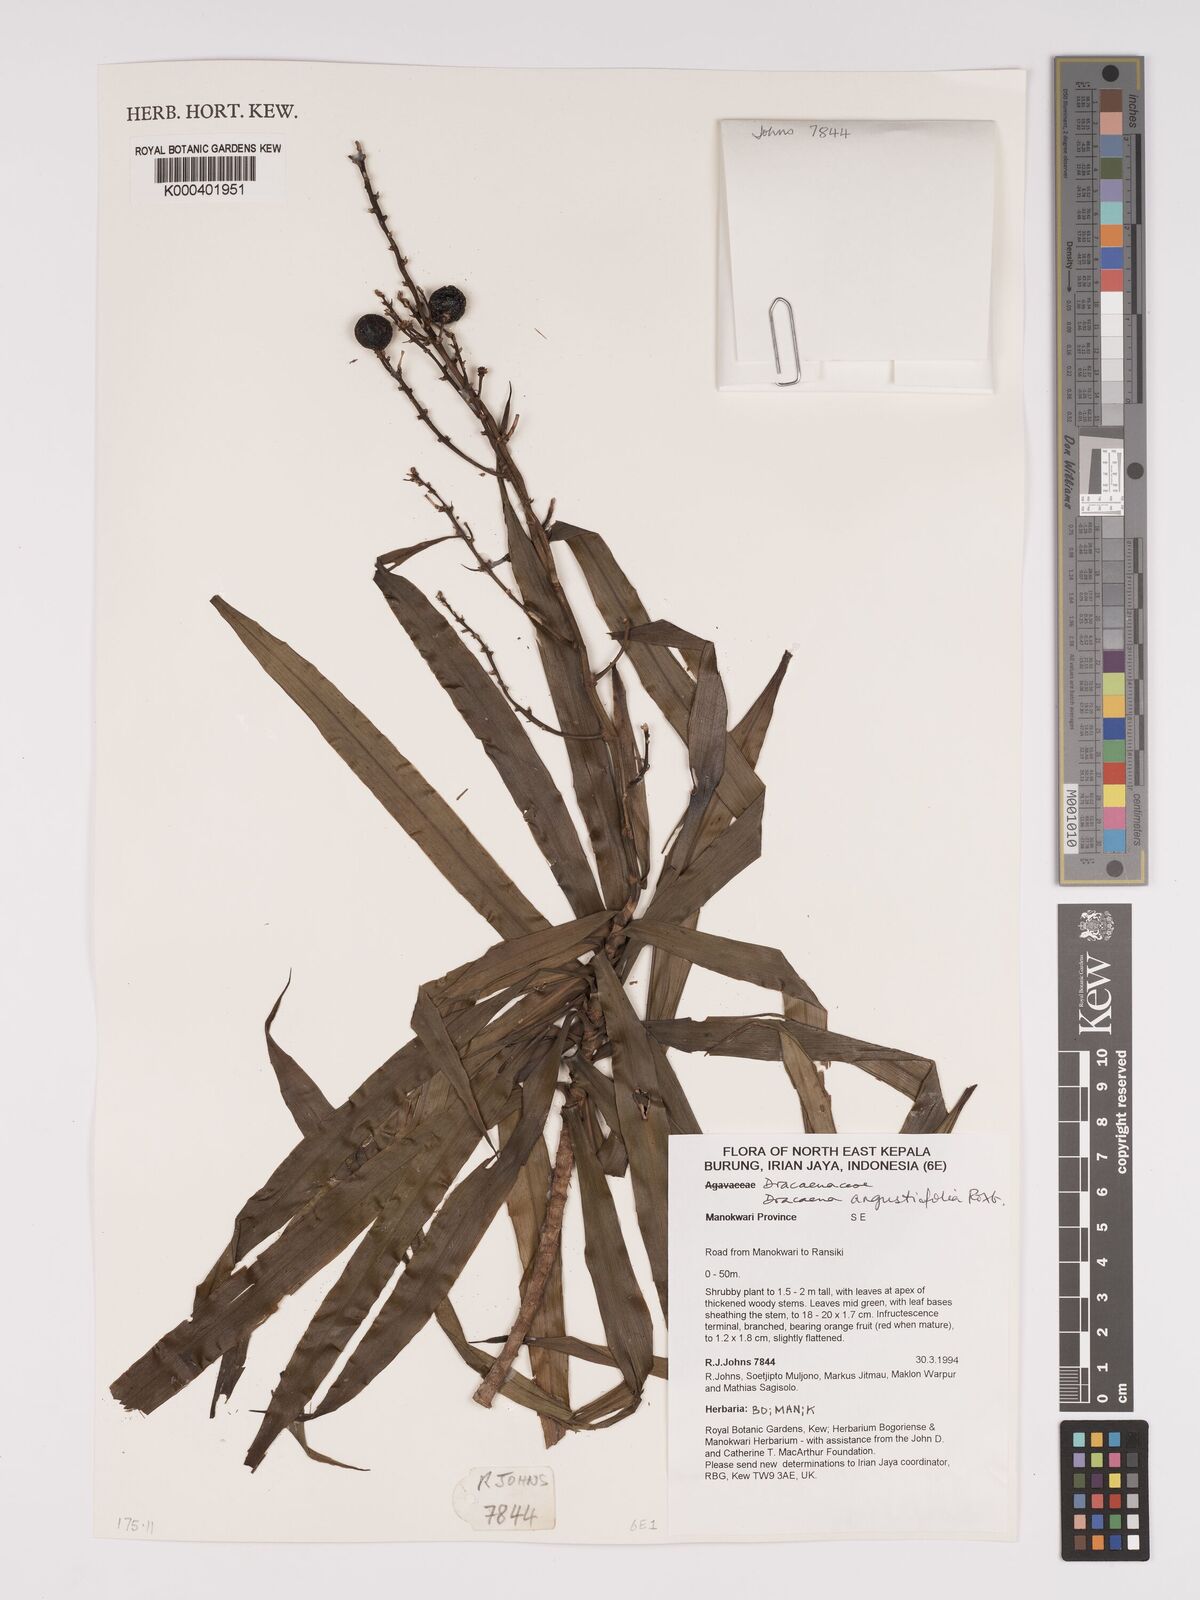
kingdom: Plantae
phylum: Tracheophyta
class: Liliopsida
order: Asparagales
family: Asparagaceae
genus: Dracaena
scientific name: Dracaena angustifolia
